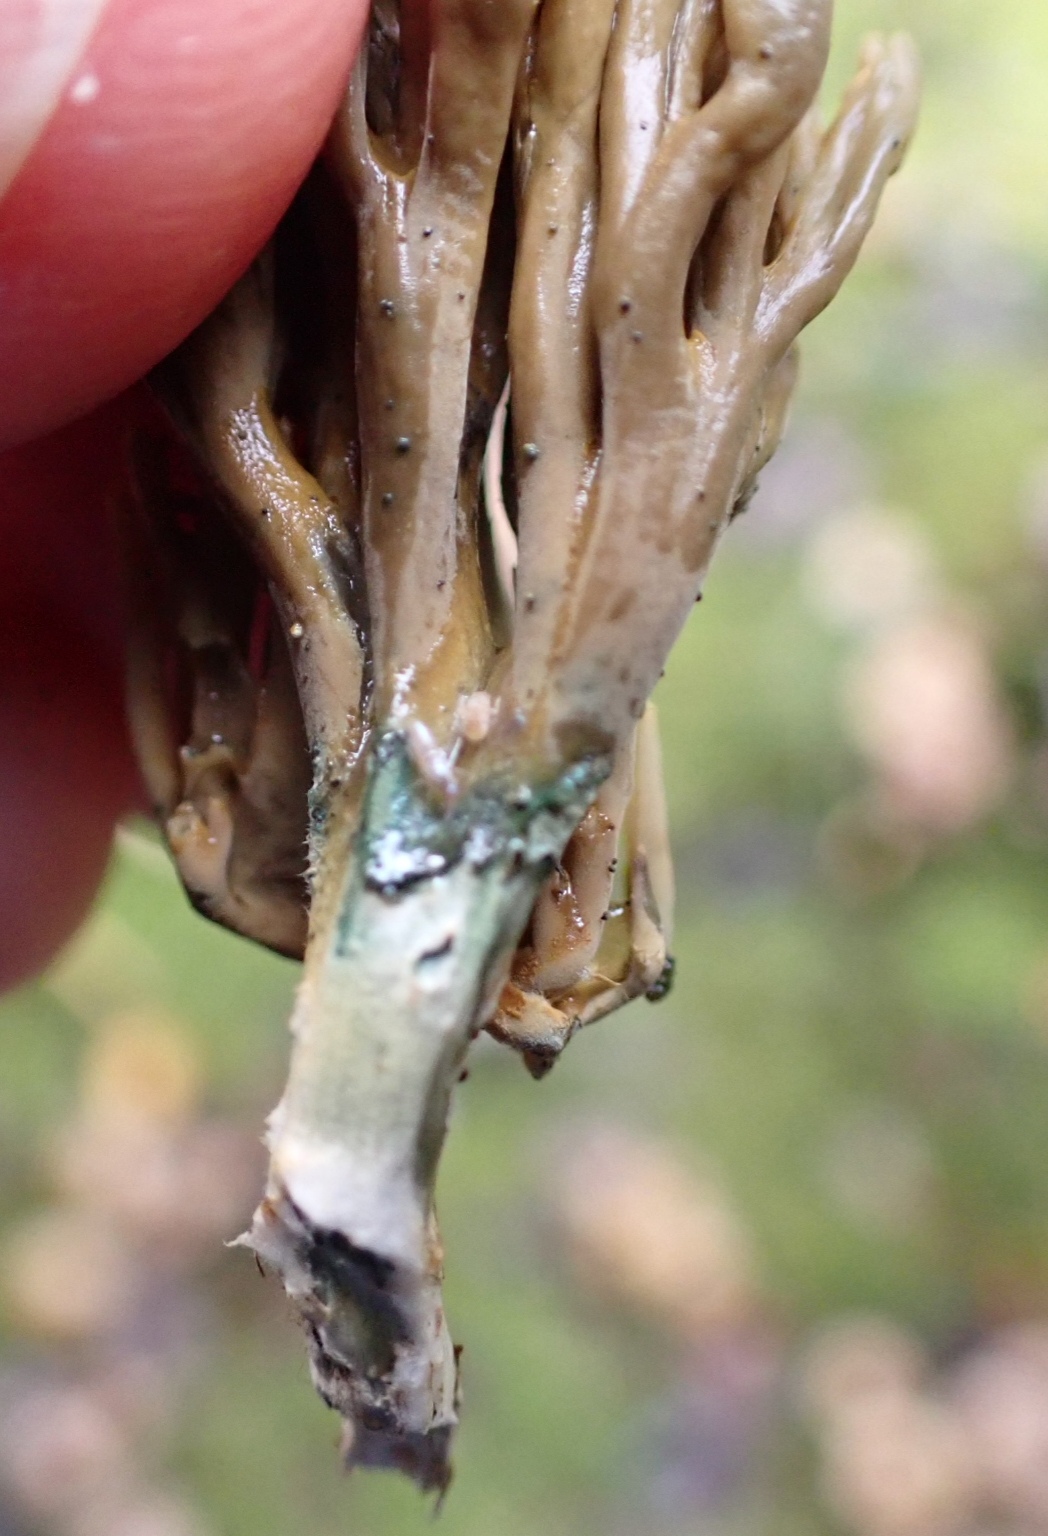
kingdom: Fungi
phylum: Basidiomycota
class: Agaricomycetes
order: Gomphales
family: Gomphaceae
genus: Phaeoclavulina
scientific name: Phaeoclavulina abietina
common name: gulgrøn koralsvamp
